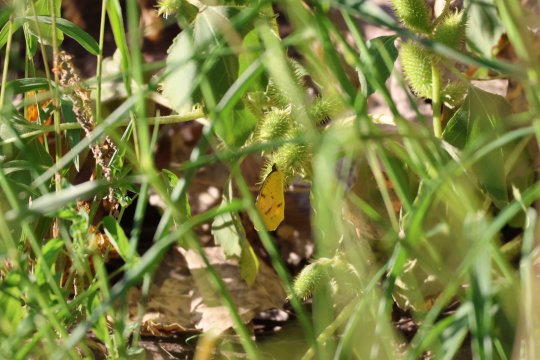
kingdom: Animalia
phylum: Arthropoda
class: Insecta
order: Lepidoptera
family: Pieridae
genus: Abaeis
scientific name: Abaeis nicippe
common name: Sleepy Orange
